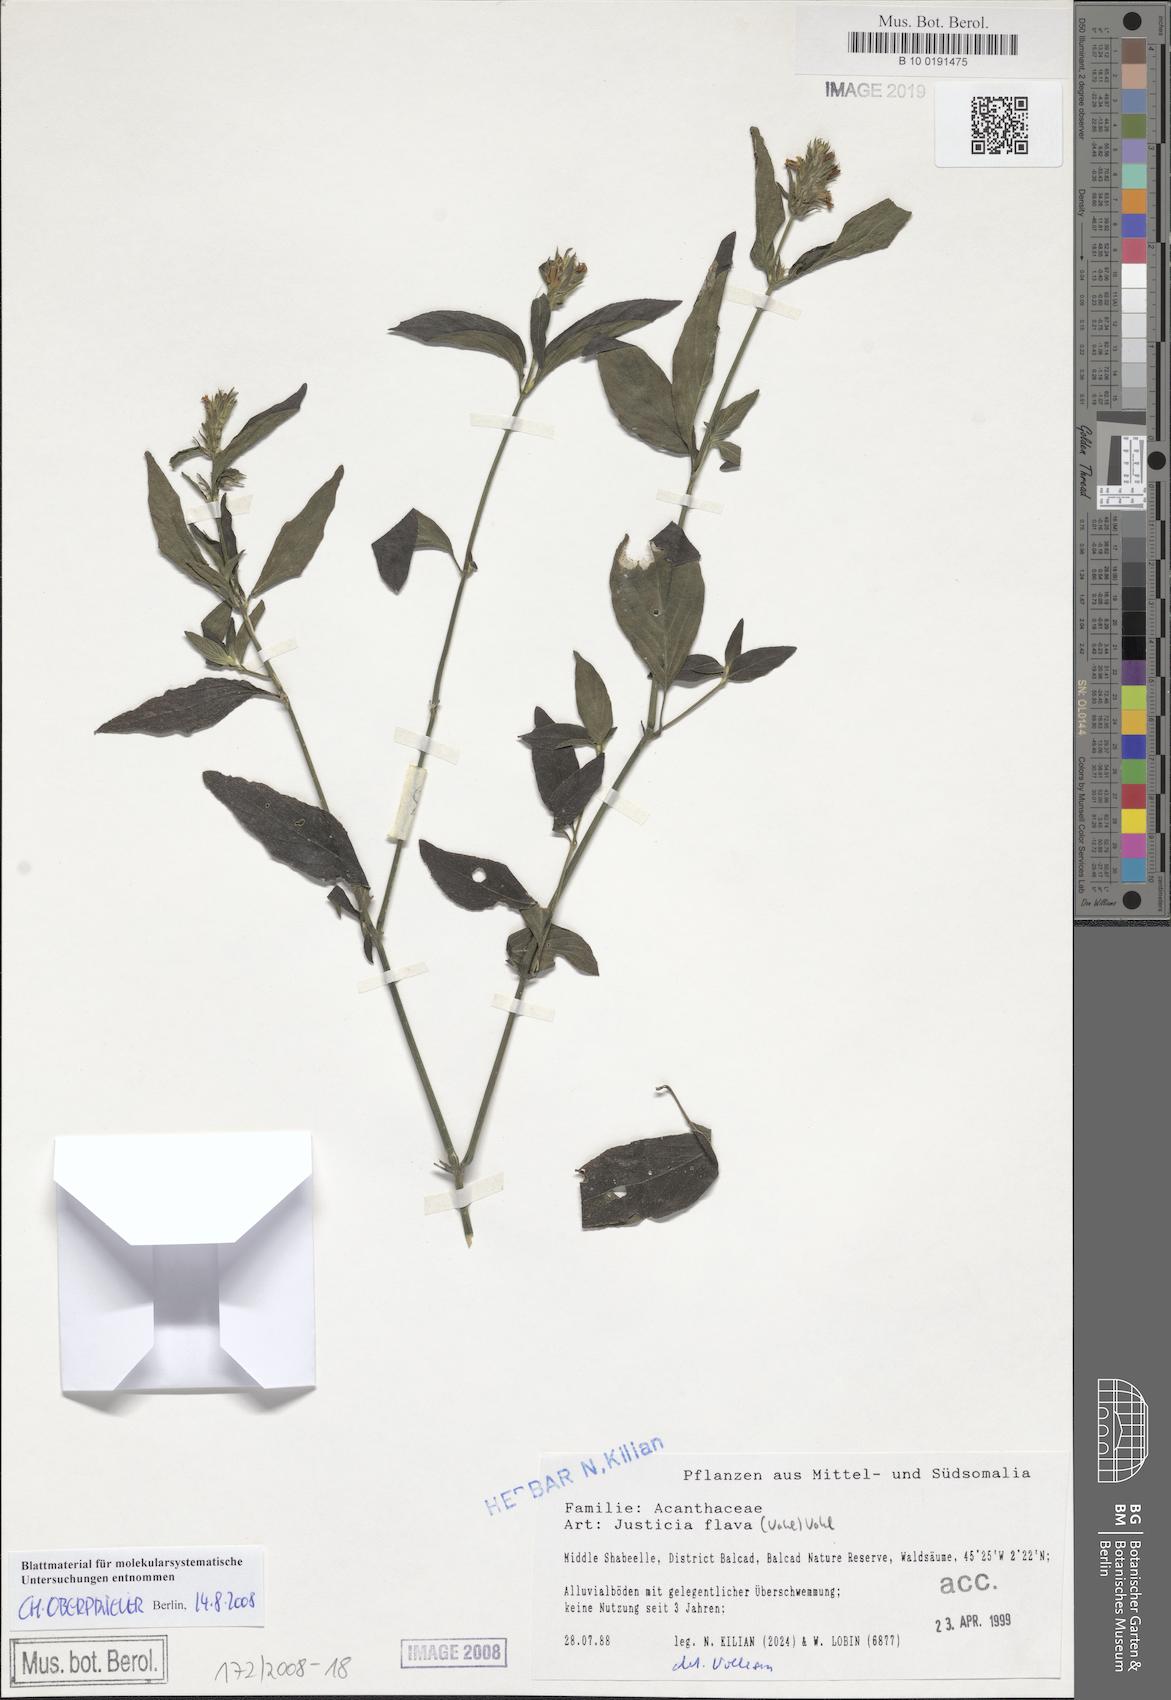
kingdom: Plantae
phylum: Tracheophyta
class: Magnoliopsida
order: Lamiales
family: Acanthaceae
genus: Justicia
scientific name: Justicia flava
